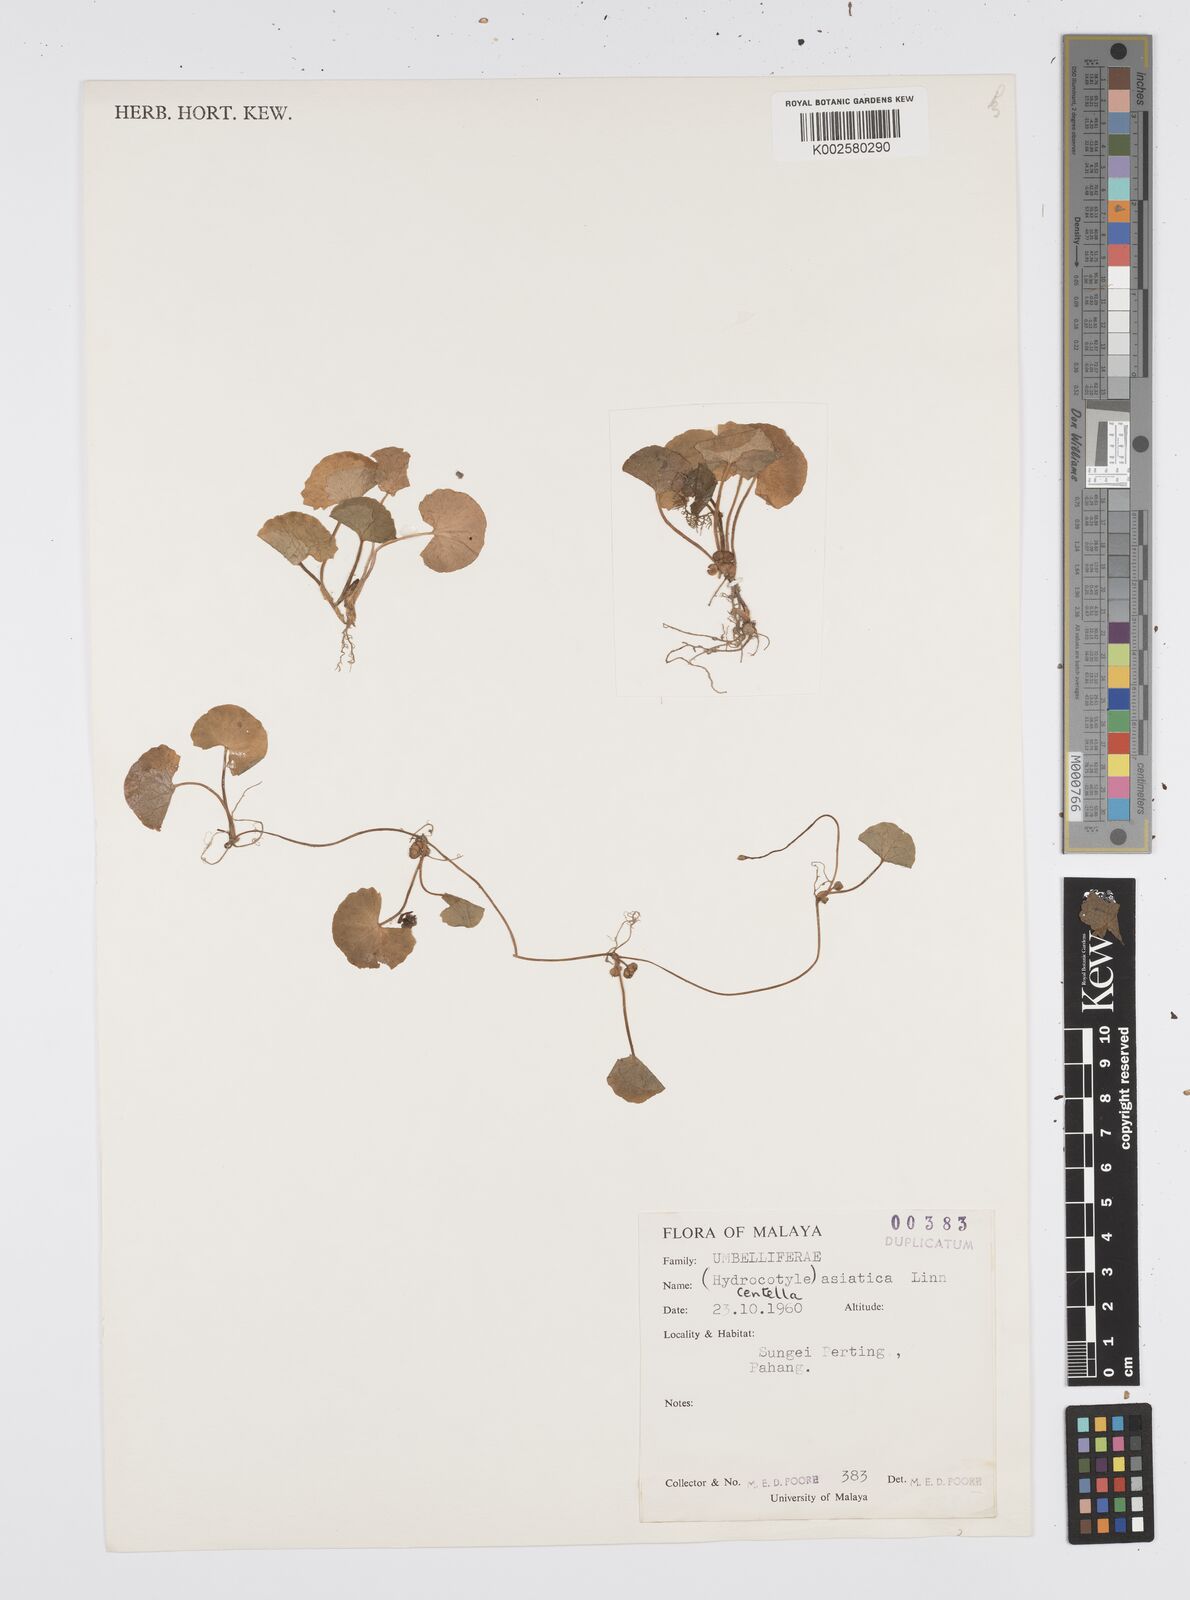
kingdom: Plantae
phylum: Tracheophyta
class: Magnoliopsida
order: Apiales
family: Apiaceae
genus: Centella
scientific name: Centella asiatica
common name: Spadeleaf
